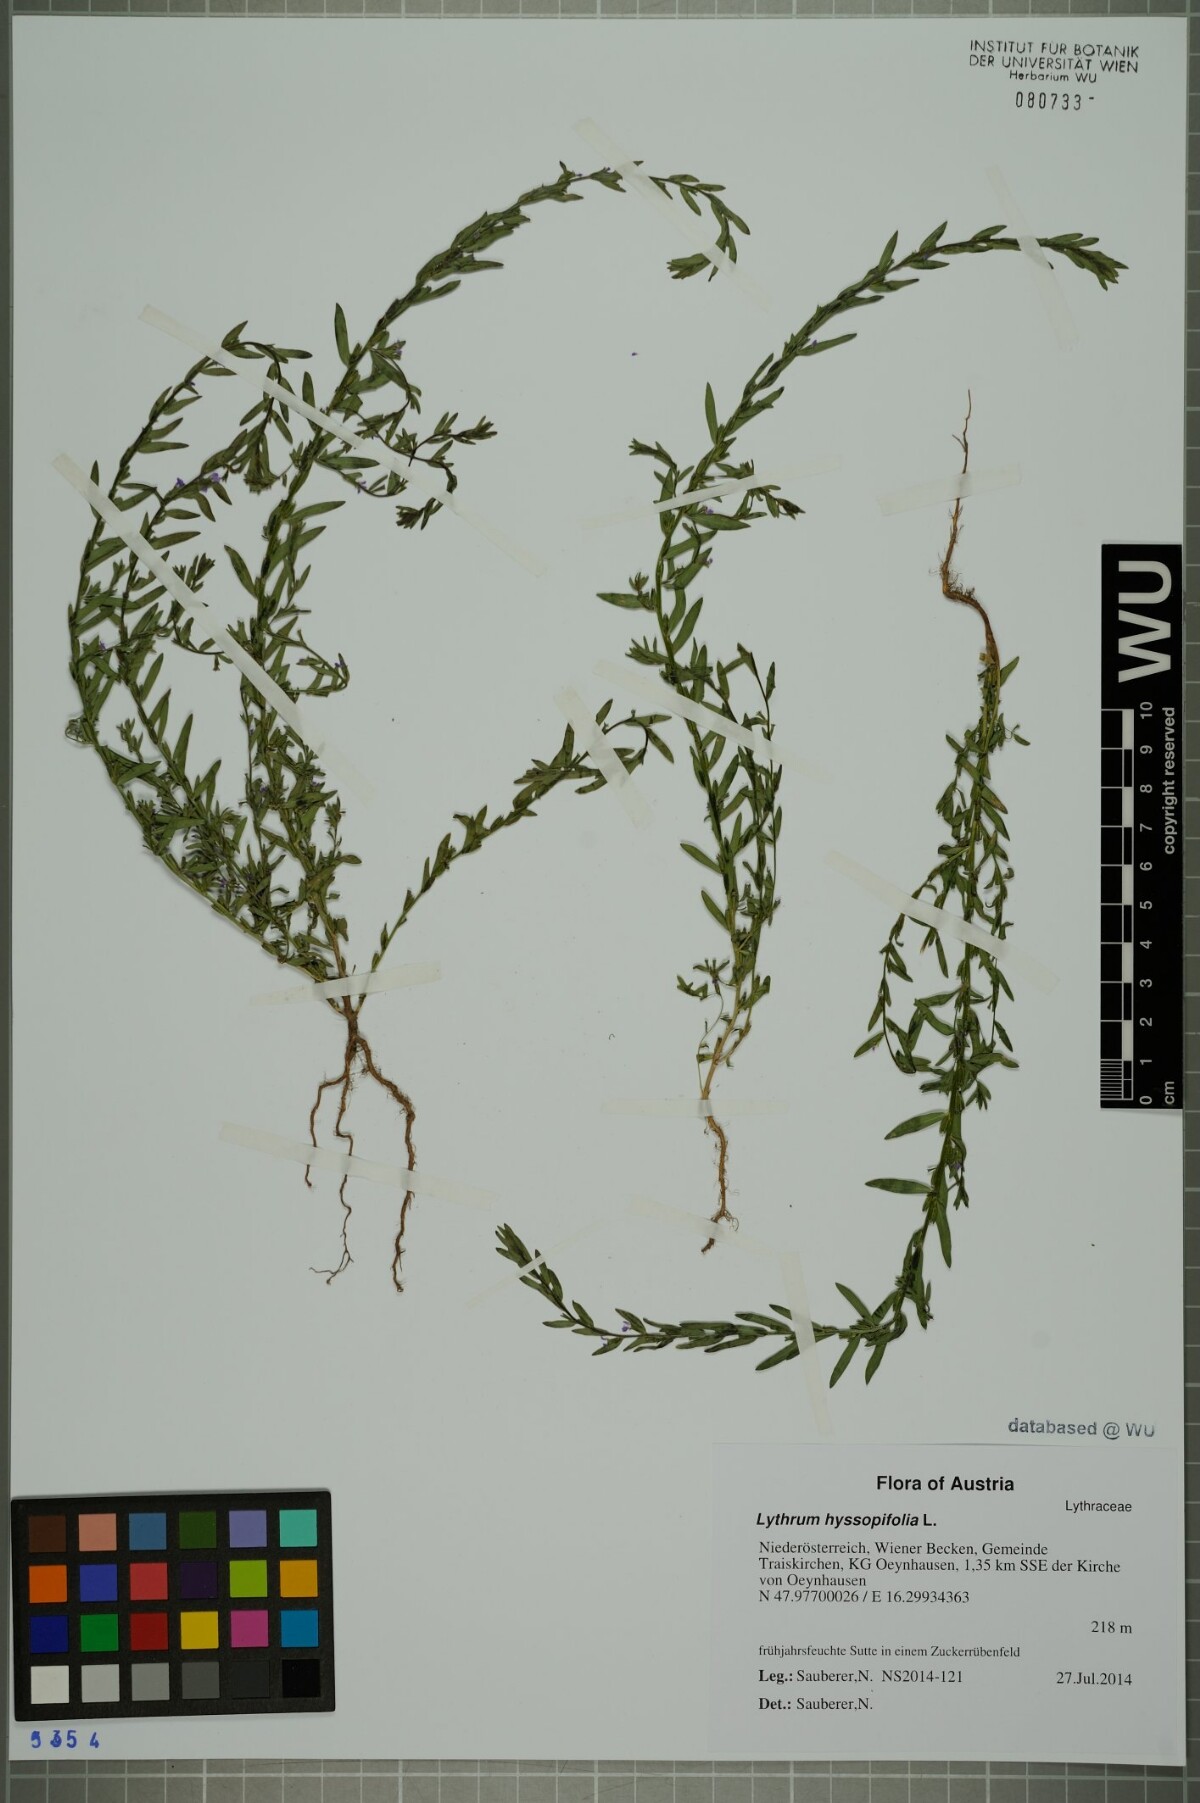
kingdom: Plantae
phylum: Tracheophyta
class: Magnoliopsida
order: Myrtales
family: Lythraceae
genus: Lythrum
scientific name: Lythrum hyssopifolia
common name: Grass-poly
